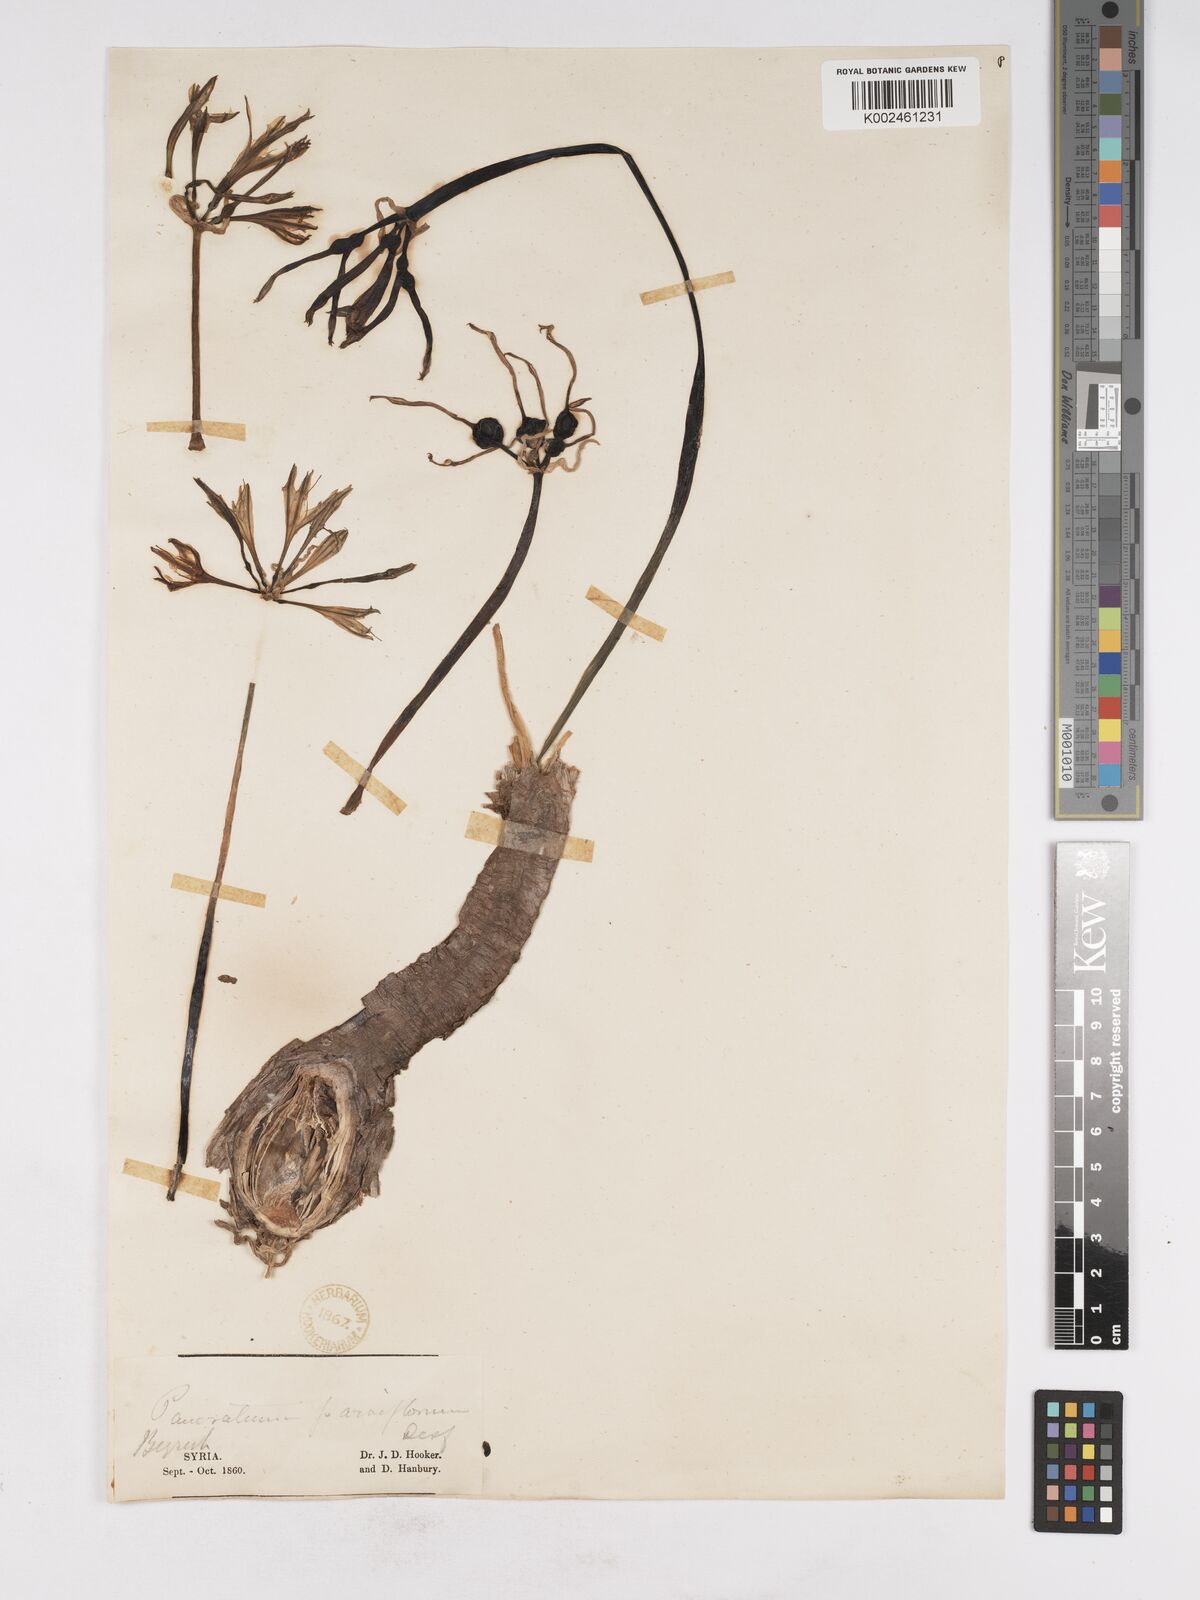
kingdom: Plantae
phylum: Tracheophyta
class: Liliopsida
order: Asparagales
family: Amaryllidaceae
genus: Vagaria
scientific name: Vagaria parviflora
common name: Small-flowered pancratium
